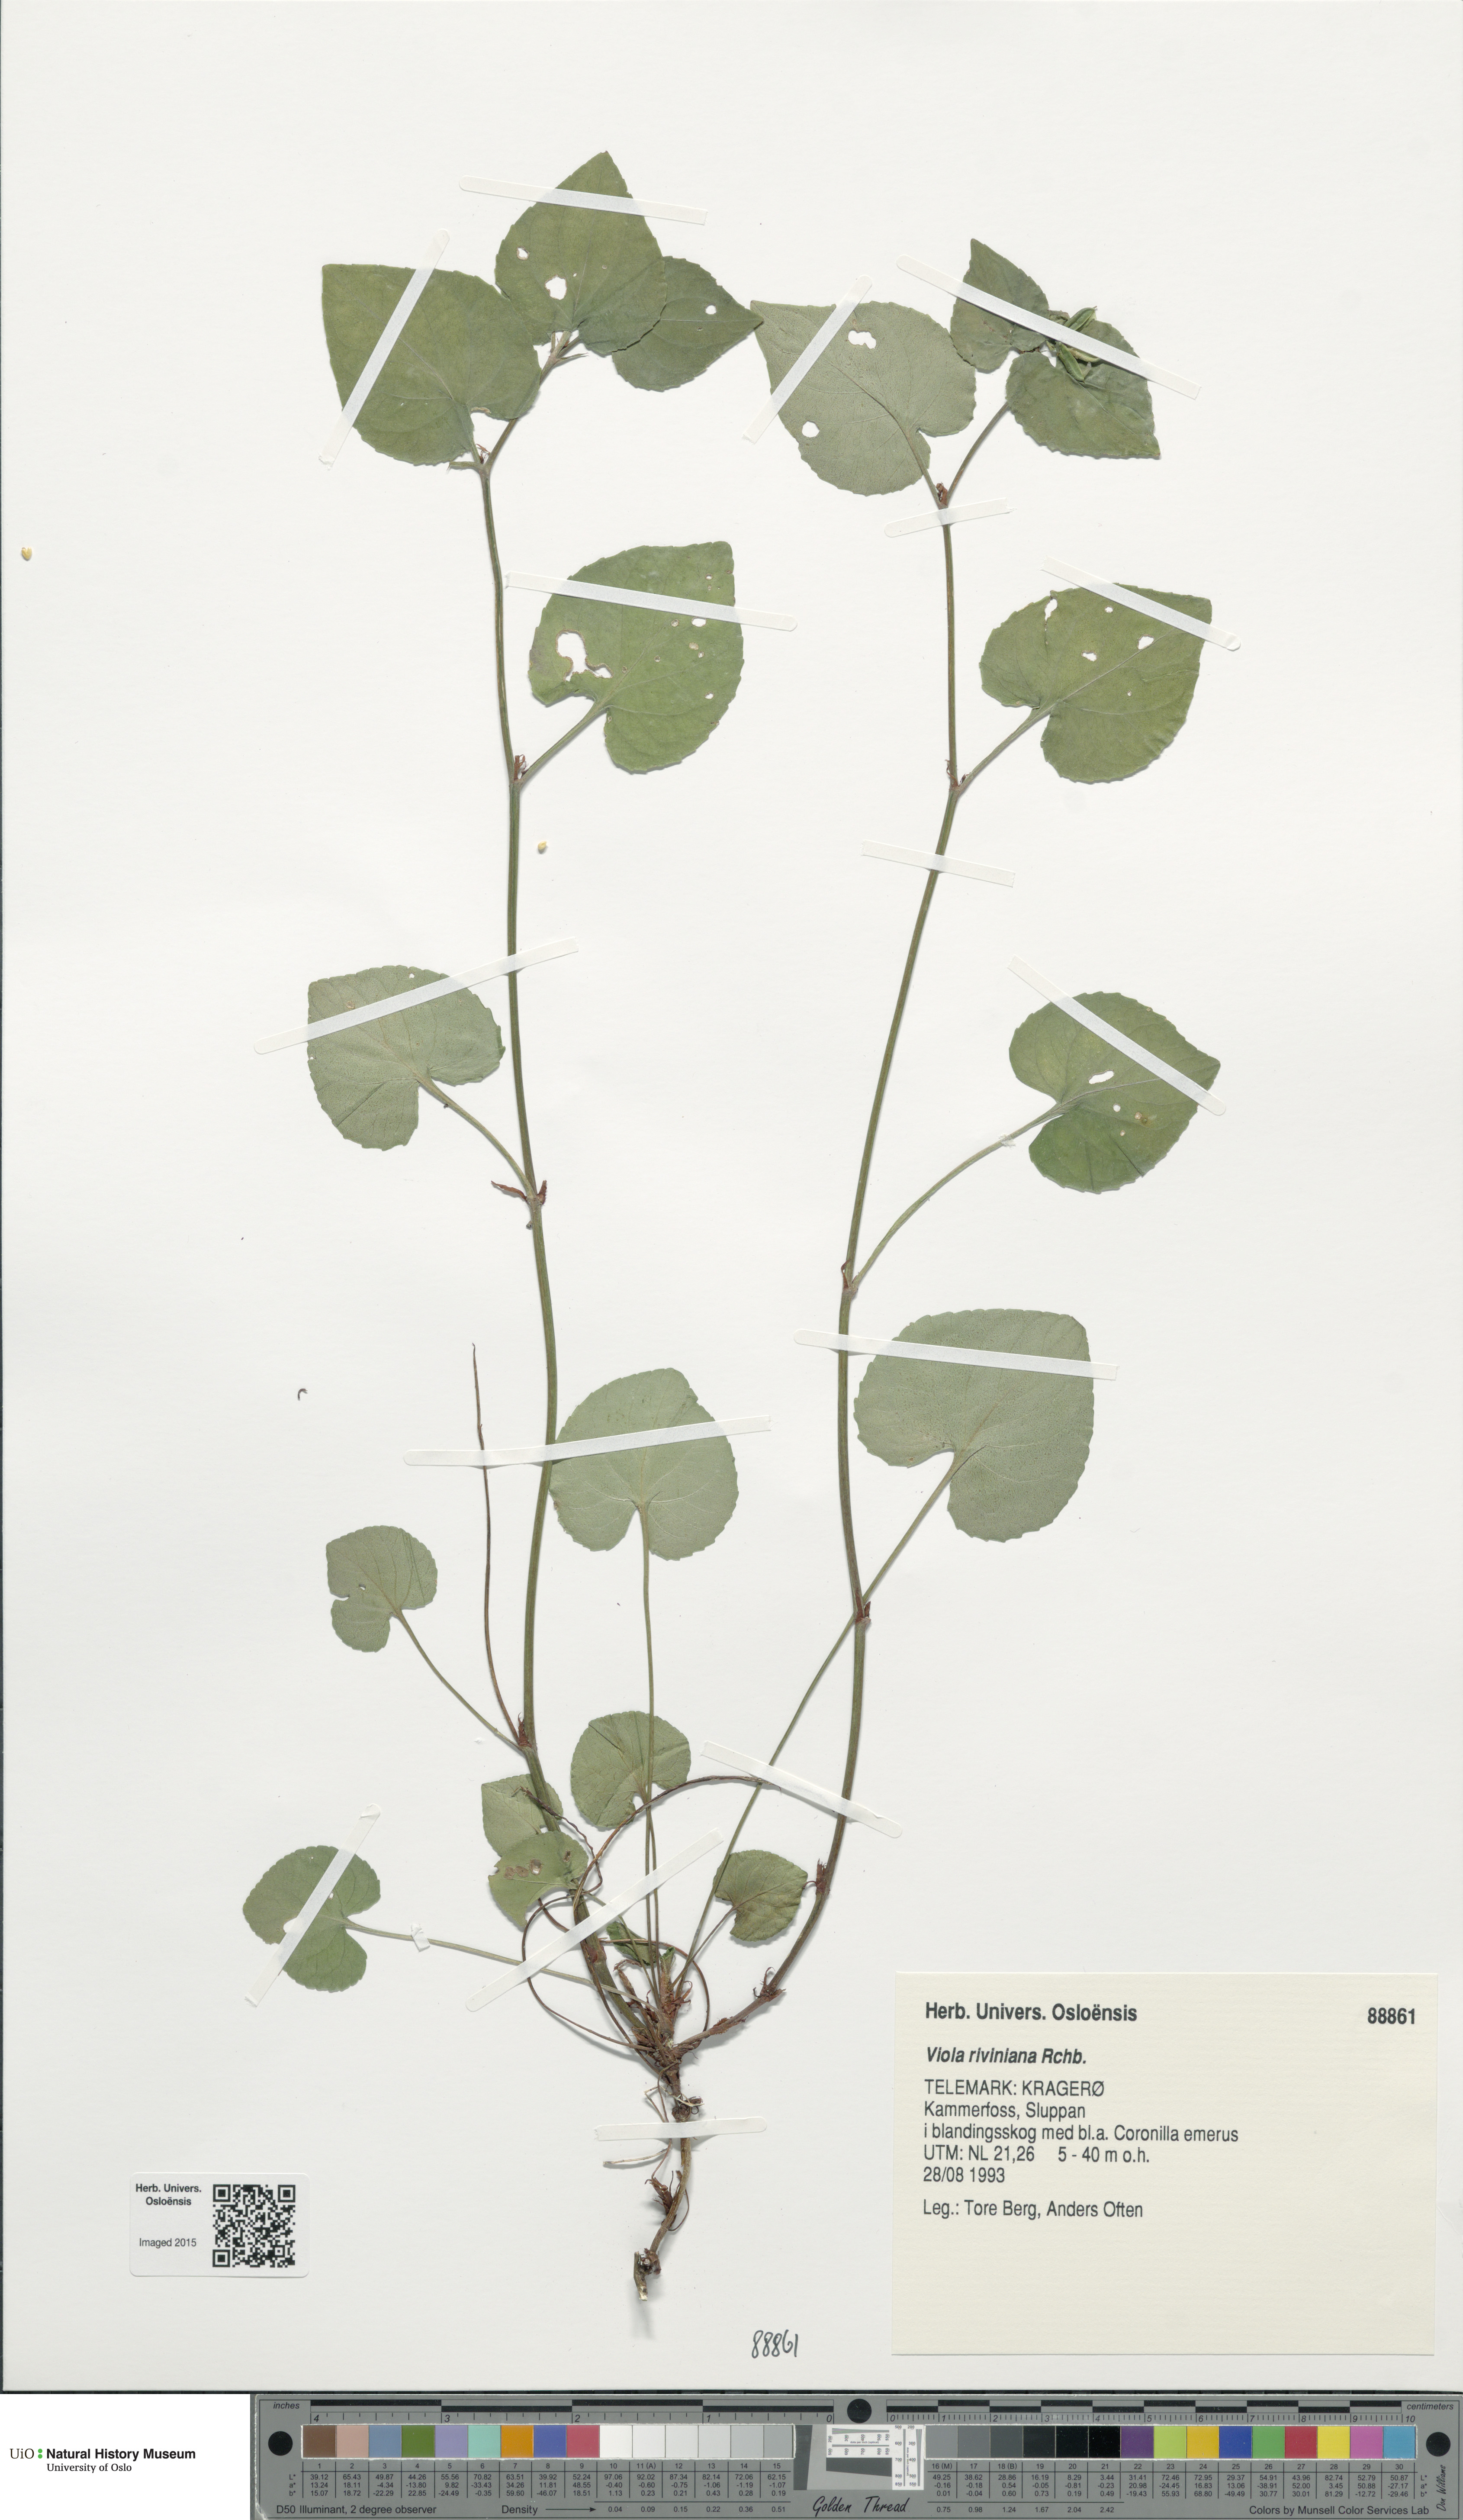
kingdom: Plantae
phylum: Tracheophyta
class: Magnoliopsida
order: Malpighiales
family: Violaceae
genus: Viola
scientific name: Viola riviniana
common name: Common dog-violet
